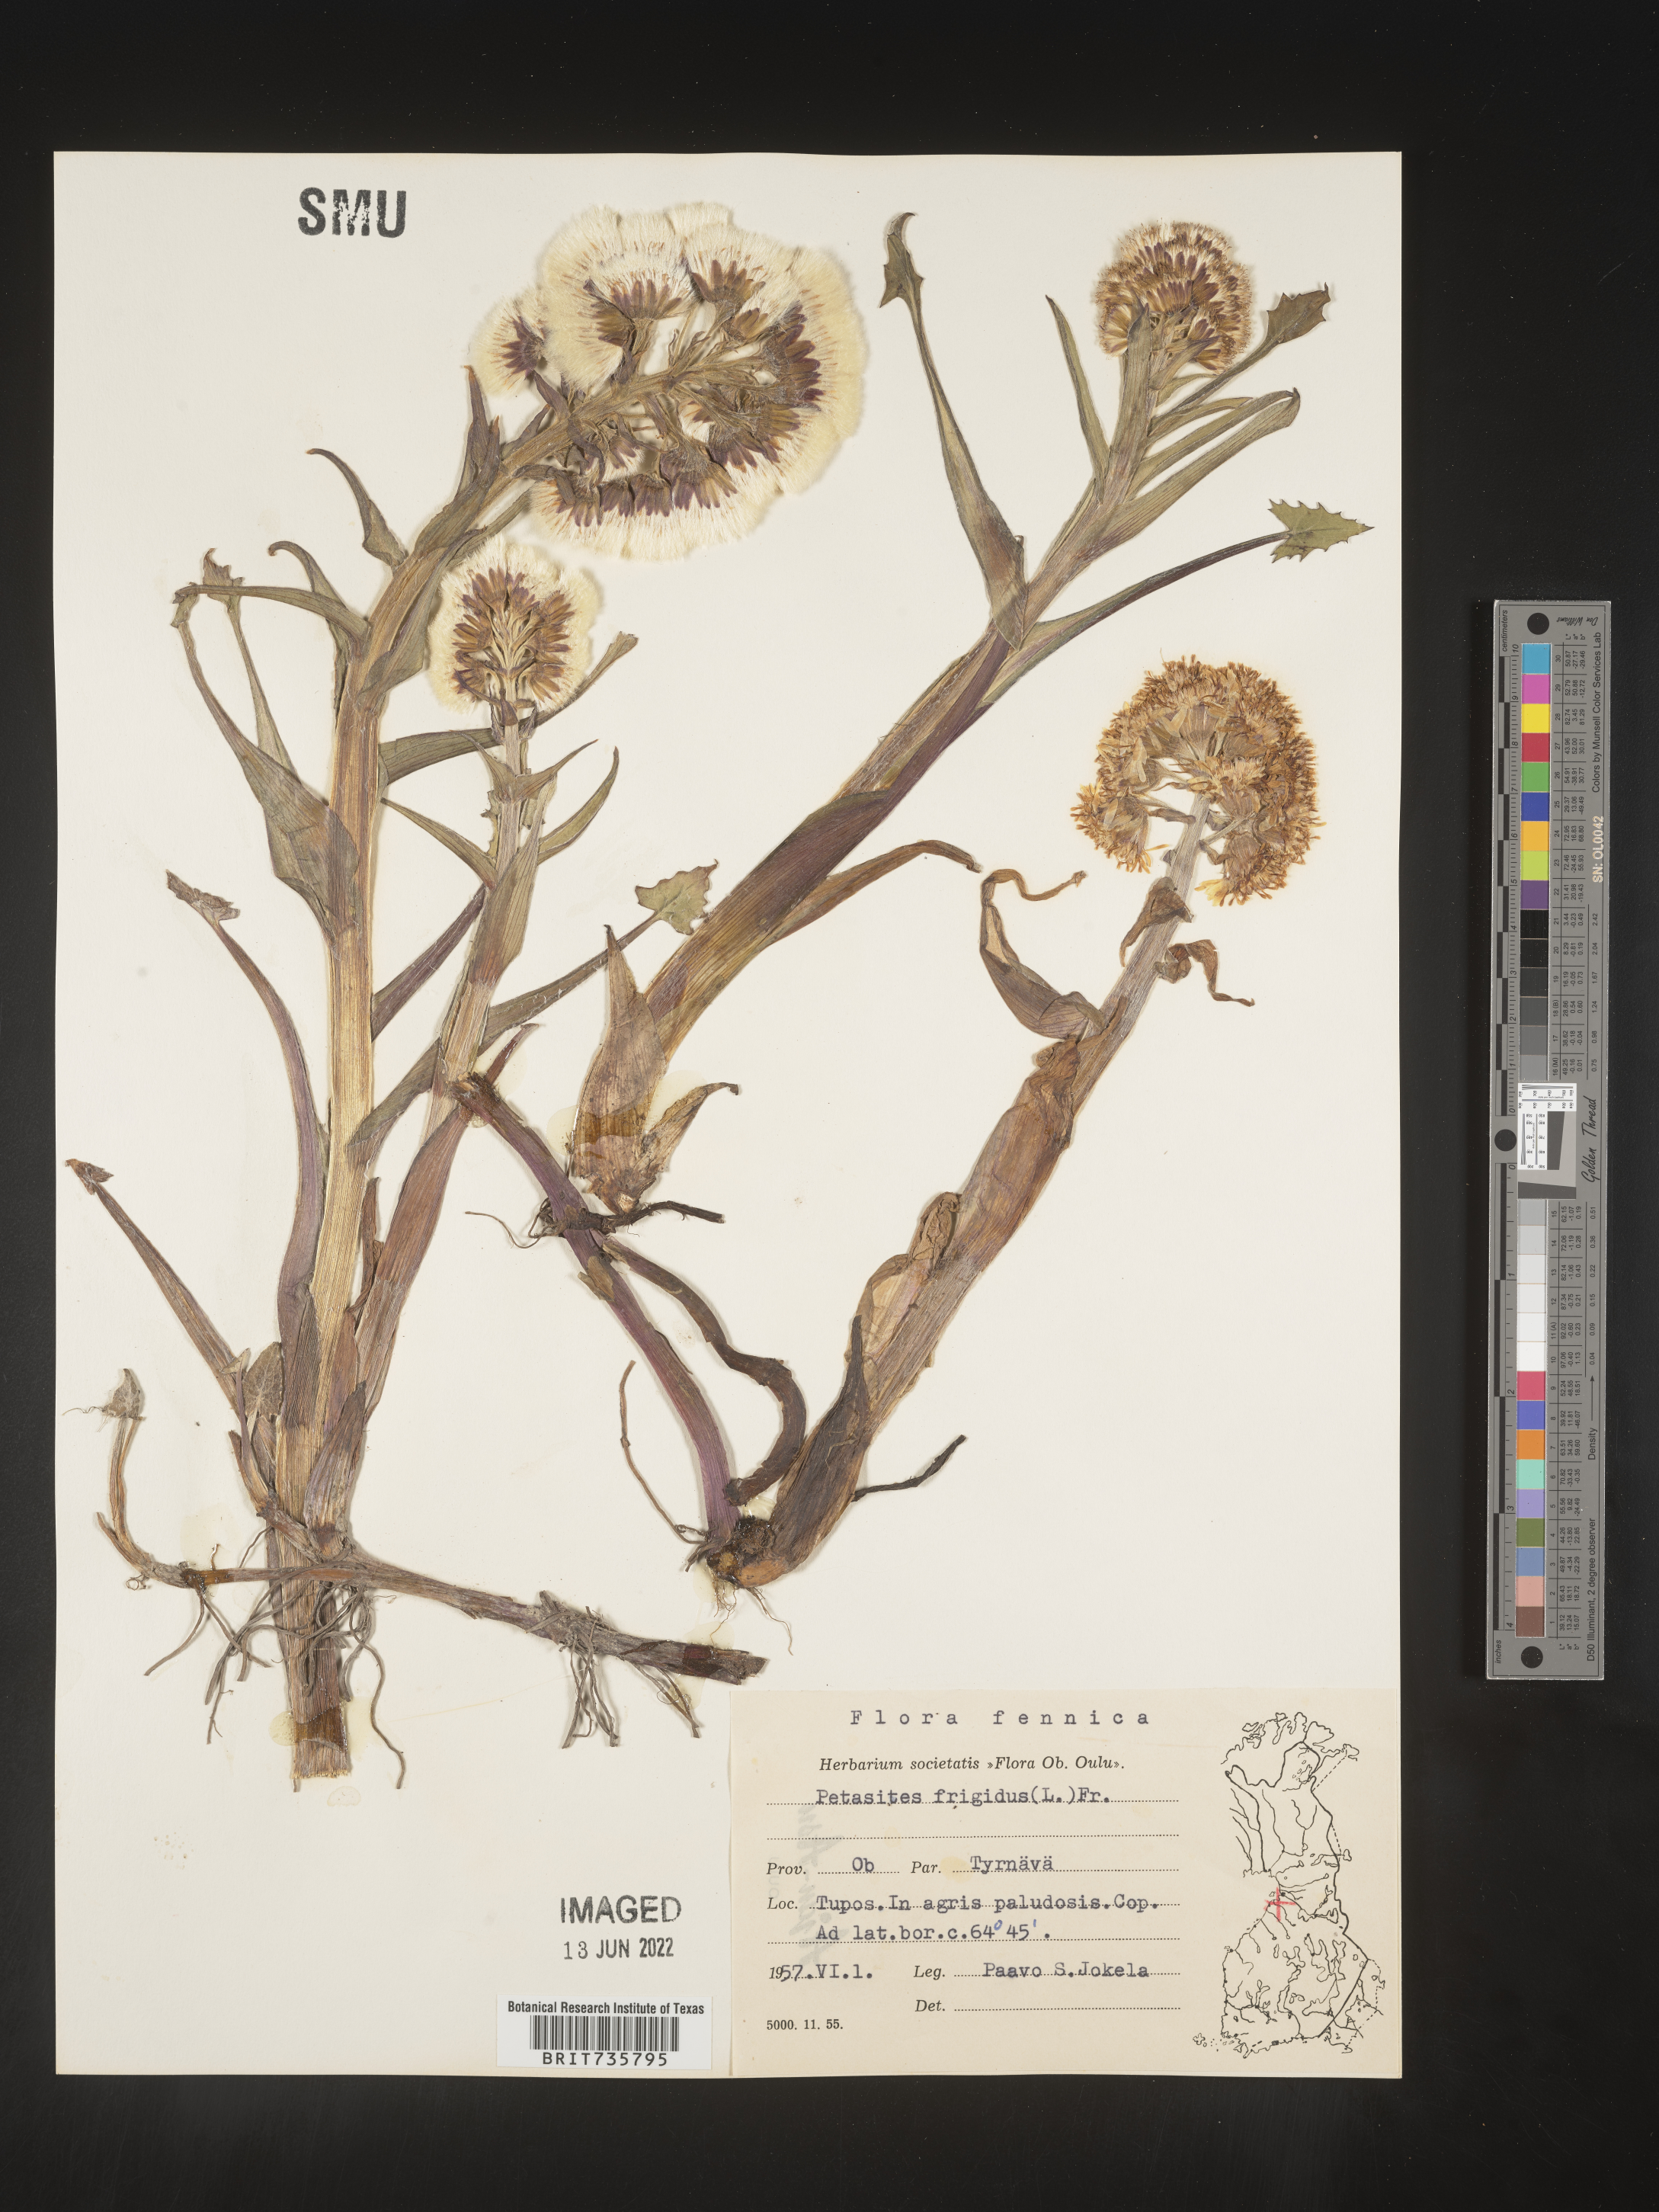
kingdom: Plantae
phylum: Tracheophyta
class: Magnoliopsida
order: Asterales
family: Asteraceae
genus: Petasites
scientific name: Petasites
